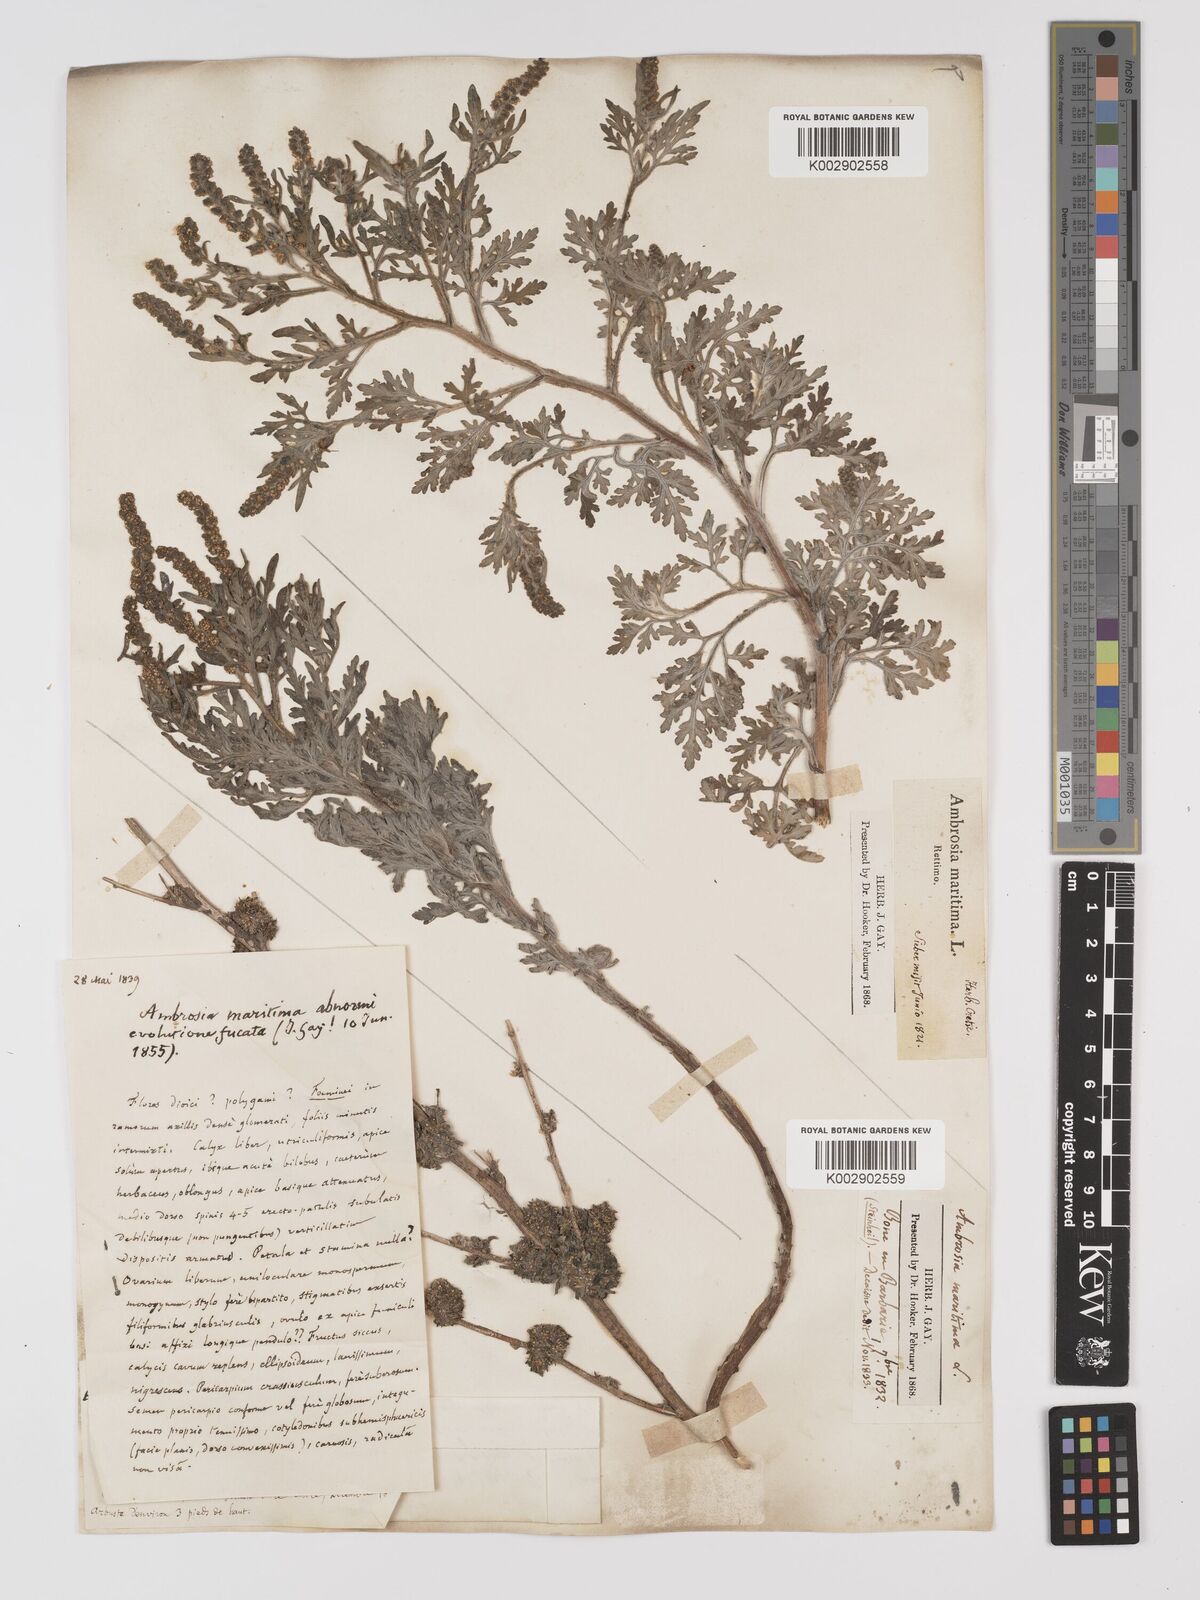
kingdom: Plantae
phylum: Tracheophyta
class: Magnoliopsida
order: Asterales
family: Asteraceae
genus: Ambrosia
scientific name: Ambrosia maritima
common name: Sea ambrosia
